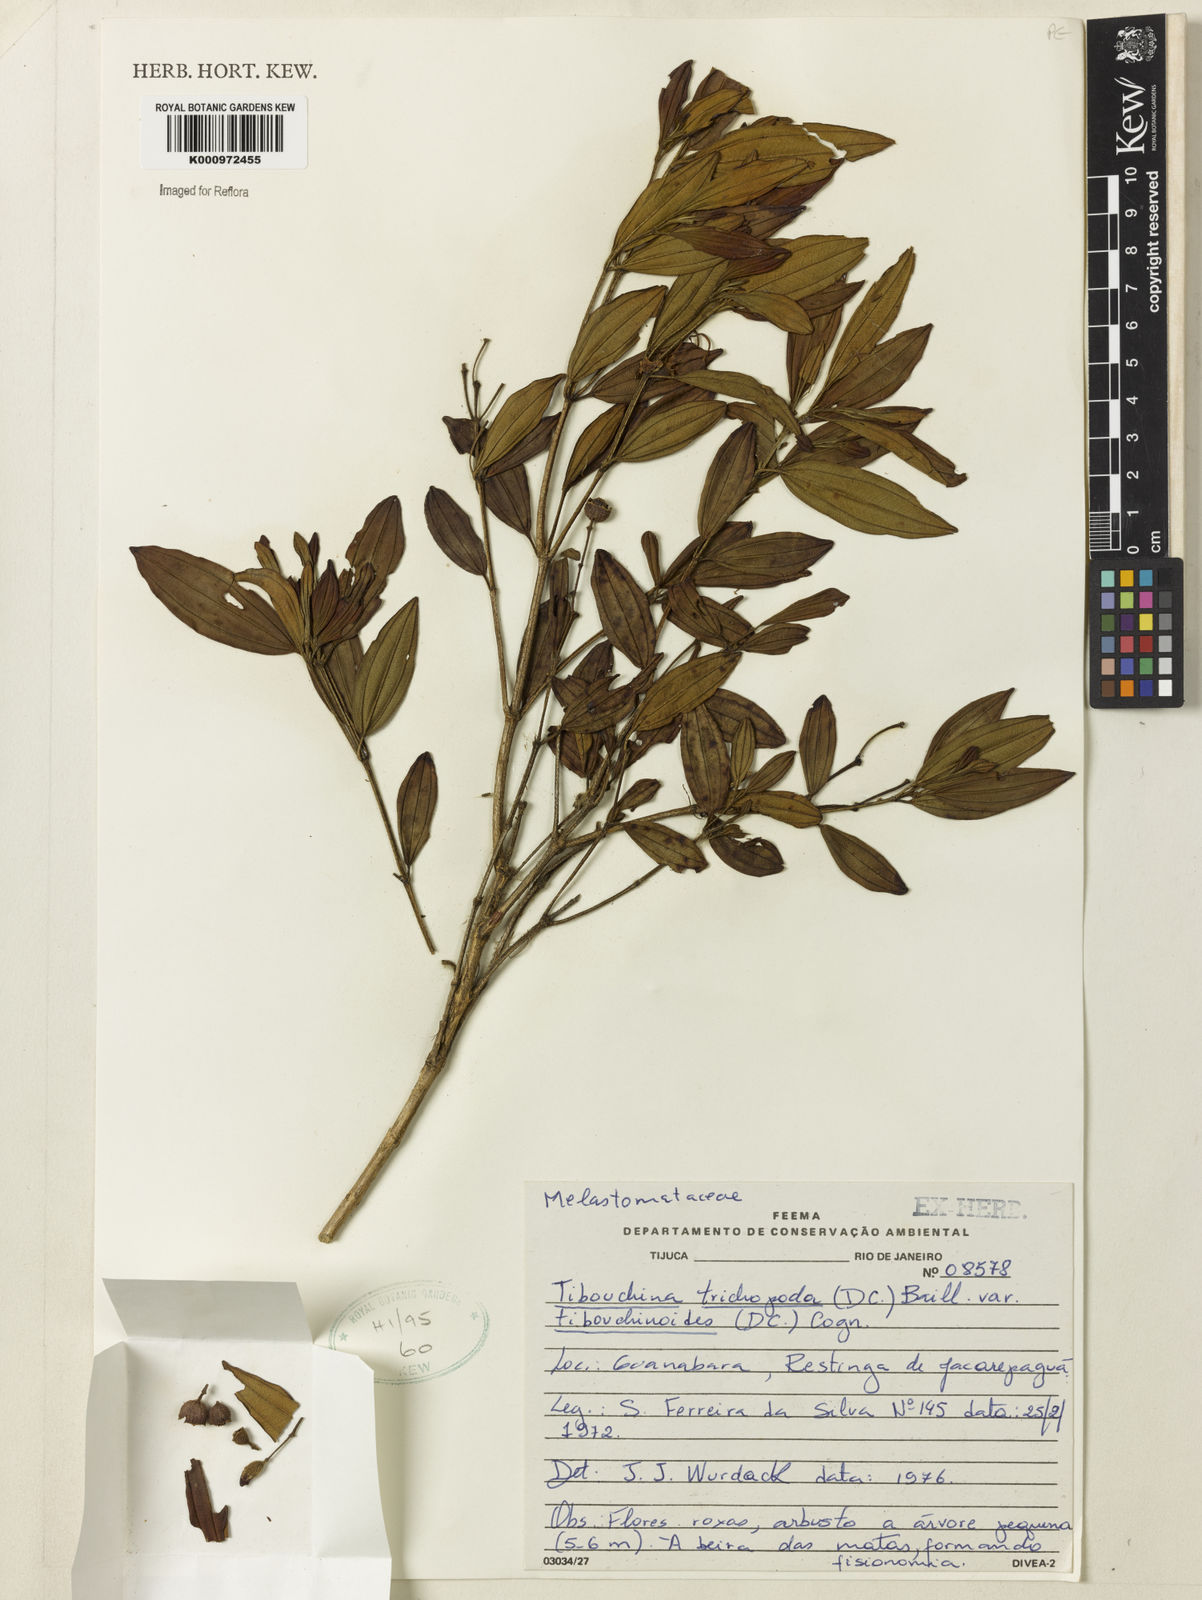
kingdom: Plantae
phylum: Tracheophyta
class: Magnoliopsida
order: Myrtales
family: Melastomataceae
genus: Pleroma
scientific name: Pleroma trichopodum
